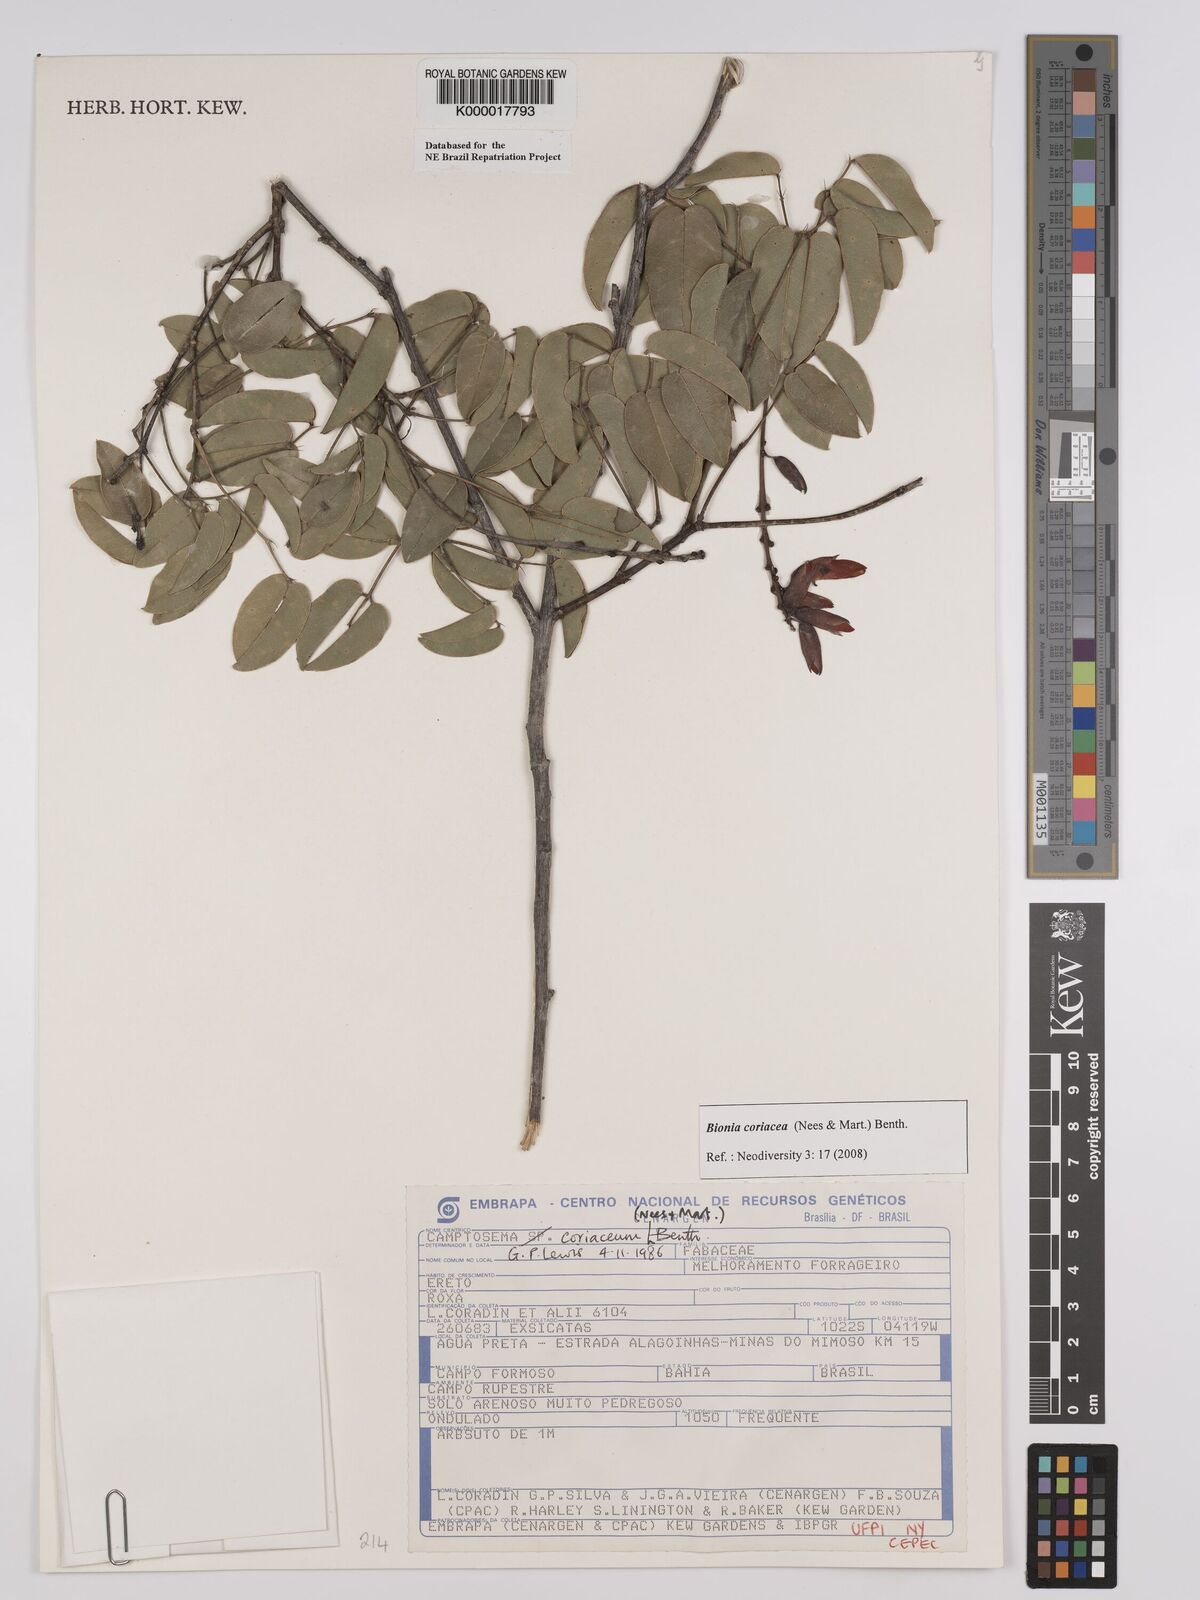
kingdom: Plantae
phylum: Tracheophyta
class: Magnoliopsida
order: Fabales
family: Fabaceae
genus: Camptosema
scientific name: Camptosema coriaceum
